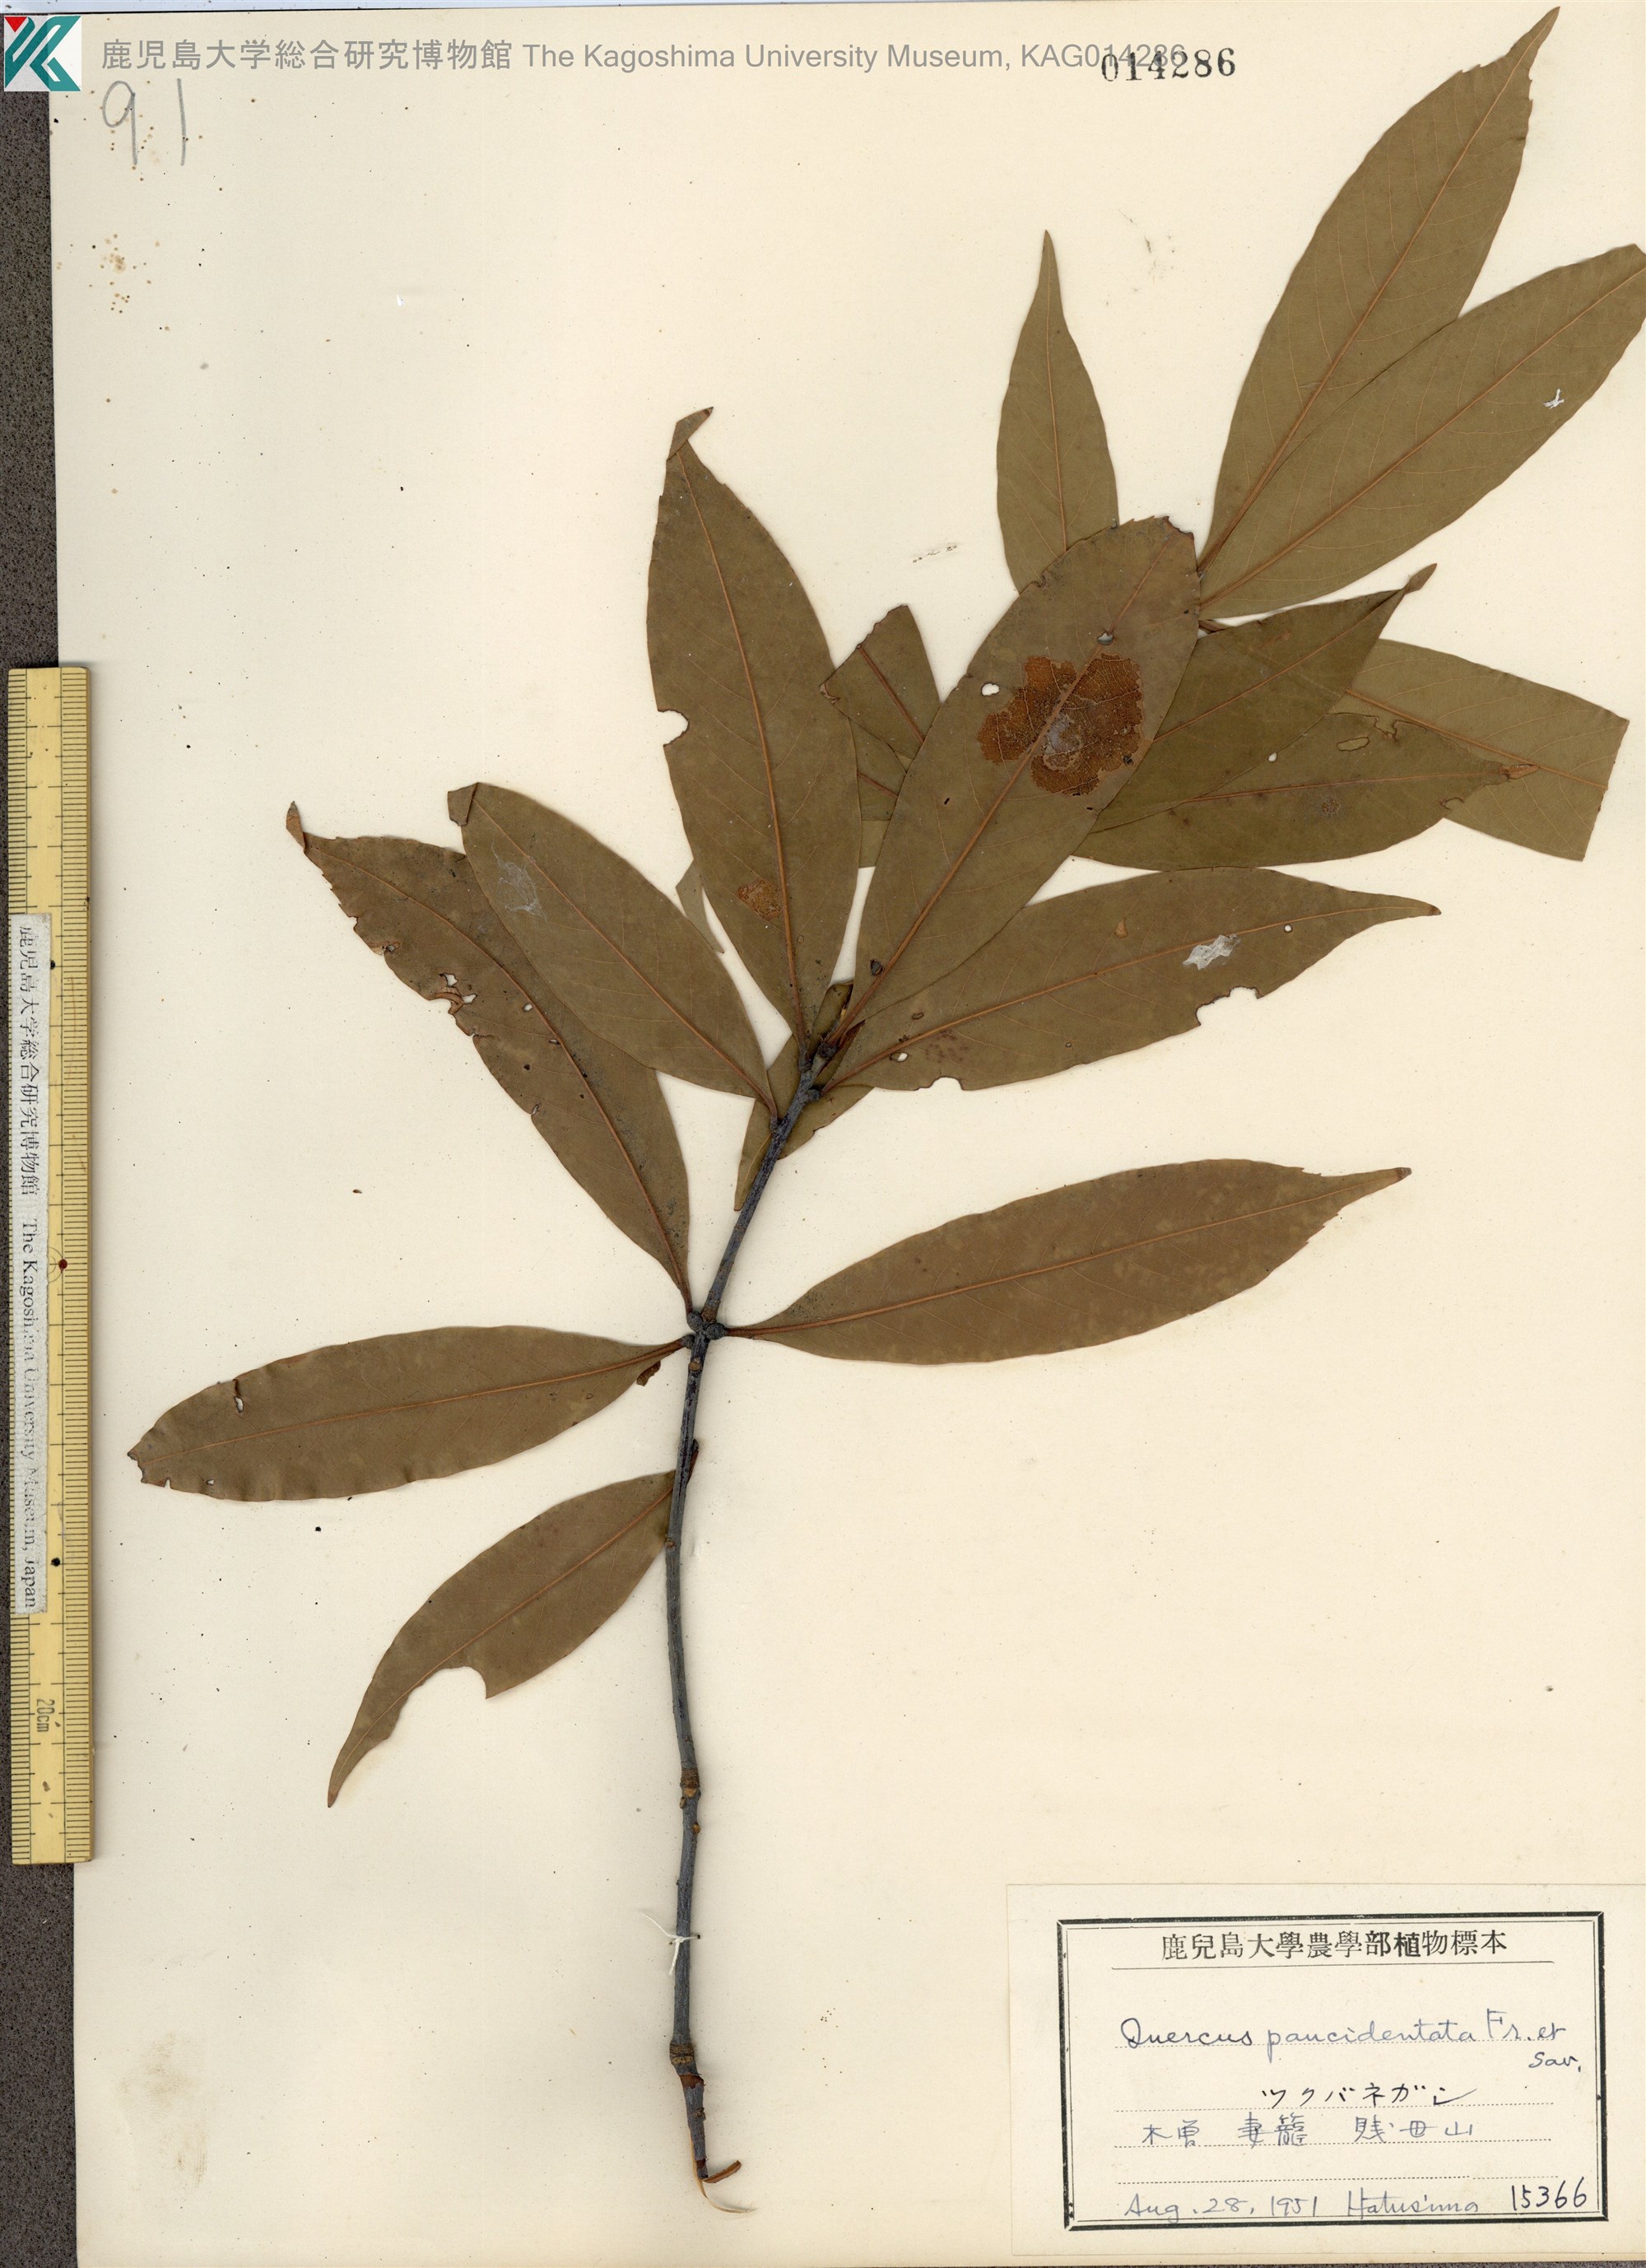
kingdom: Plantae
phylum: Tracheophyta
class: Magnoliopsida
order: Fagales
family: Fagaceae
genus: Quercus
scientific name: Quercus sessilifolia
